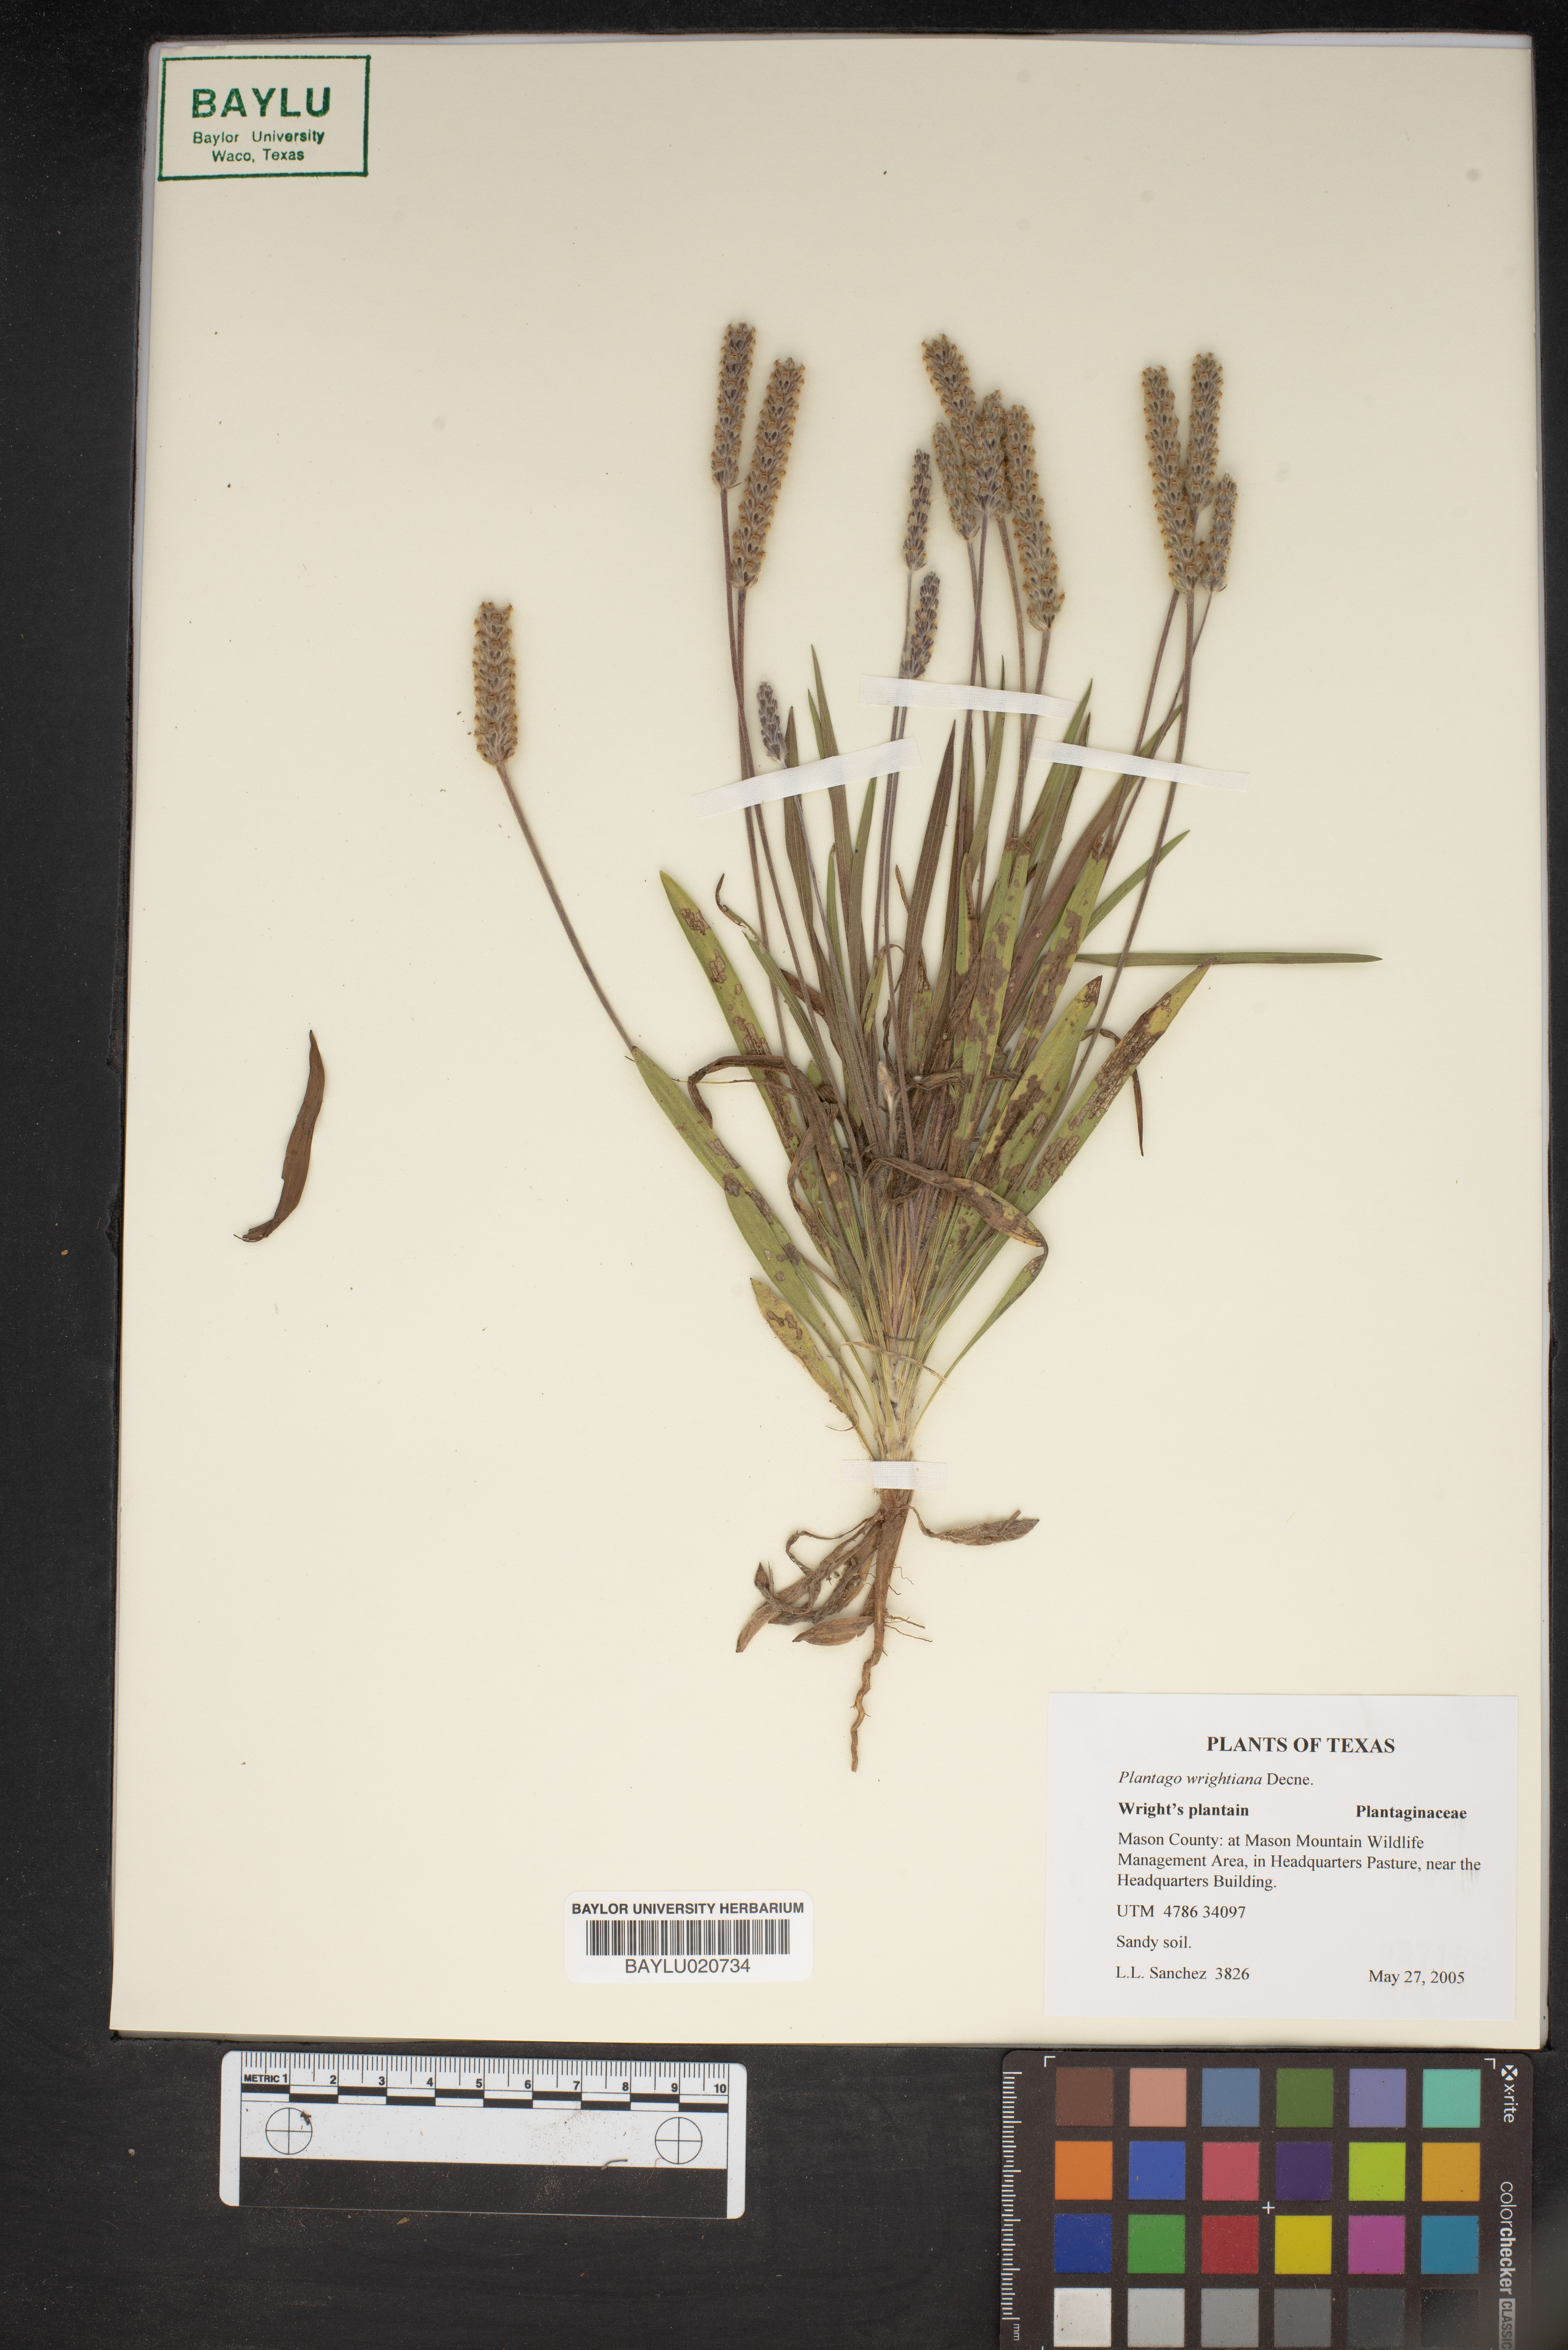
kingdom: Plantae
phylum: Tracheophyta
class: Magnoliopsida
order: Lamiales
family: Plantaginaceae
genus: Plantago
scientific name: Plantago wrightiana
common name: Wright's plantain
